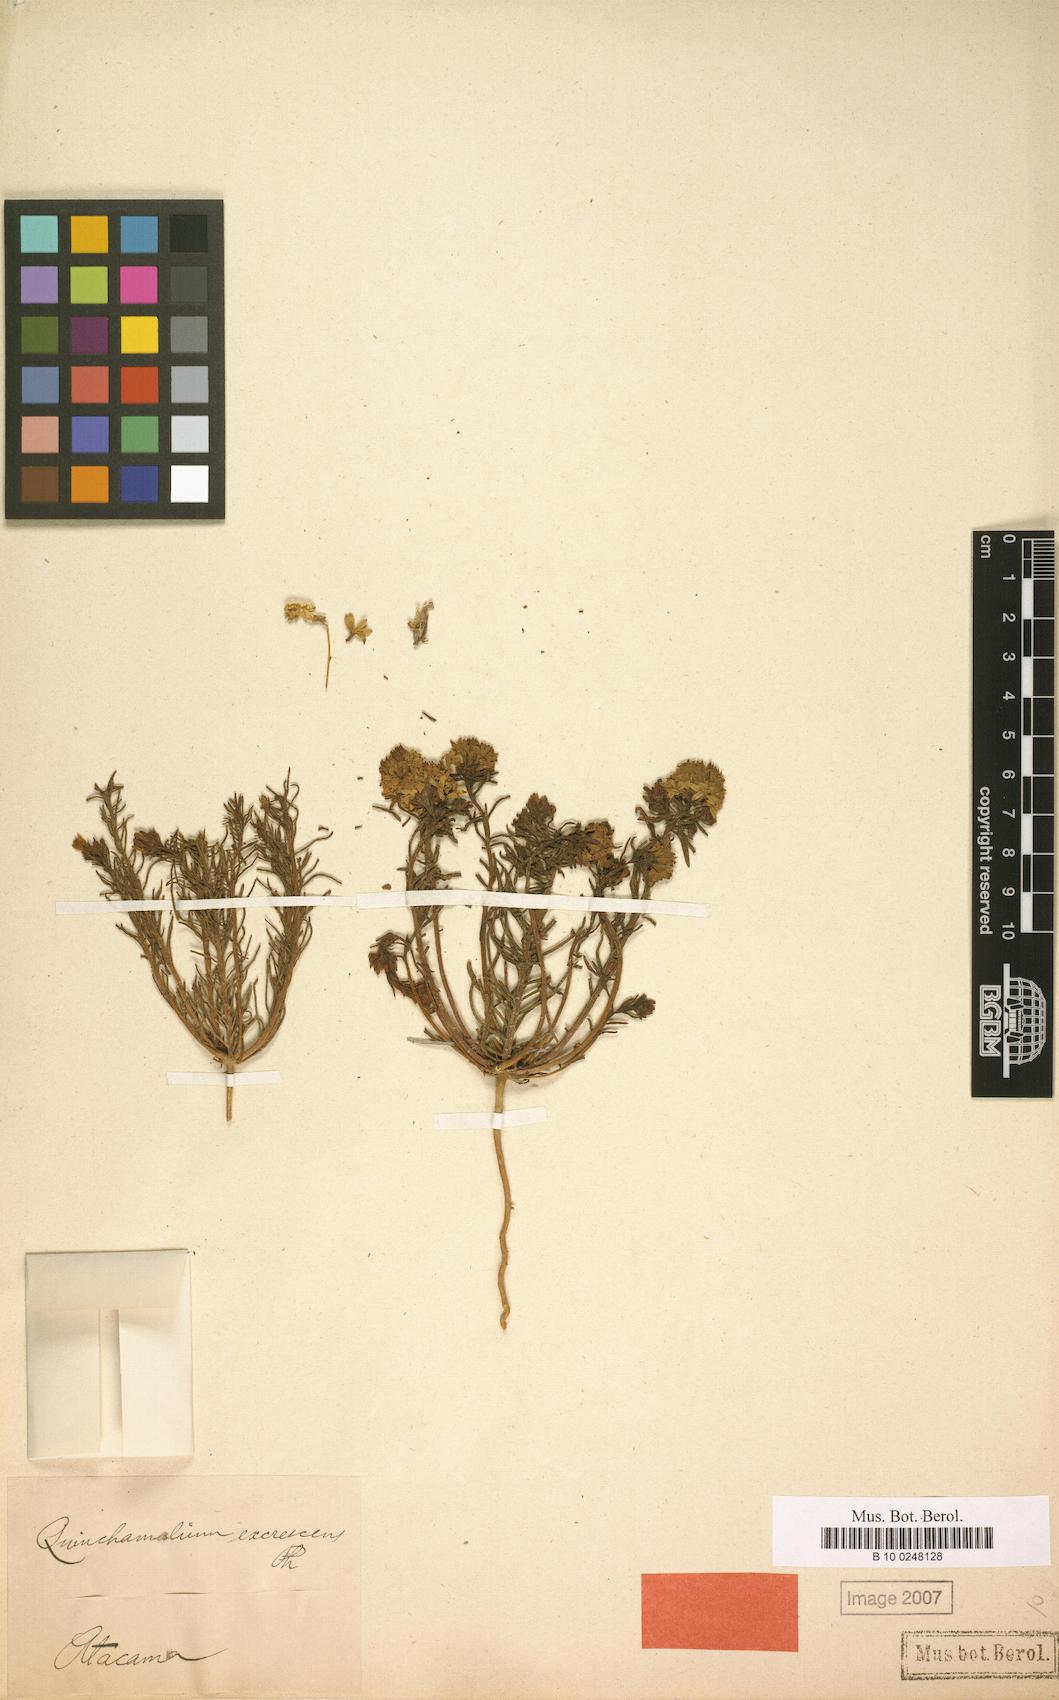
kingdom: Plantae
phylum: Tracheophyta
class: Magnoliopsida
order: Santalales
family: Schoepfiaceae
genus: Quinchamalium
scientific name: Quinchamalium chilense
